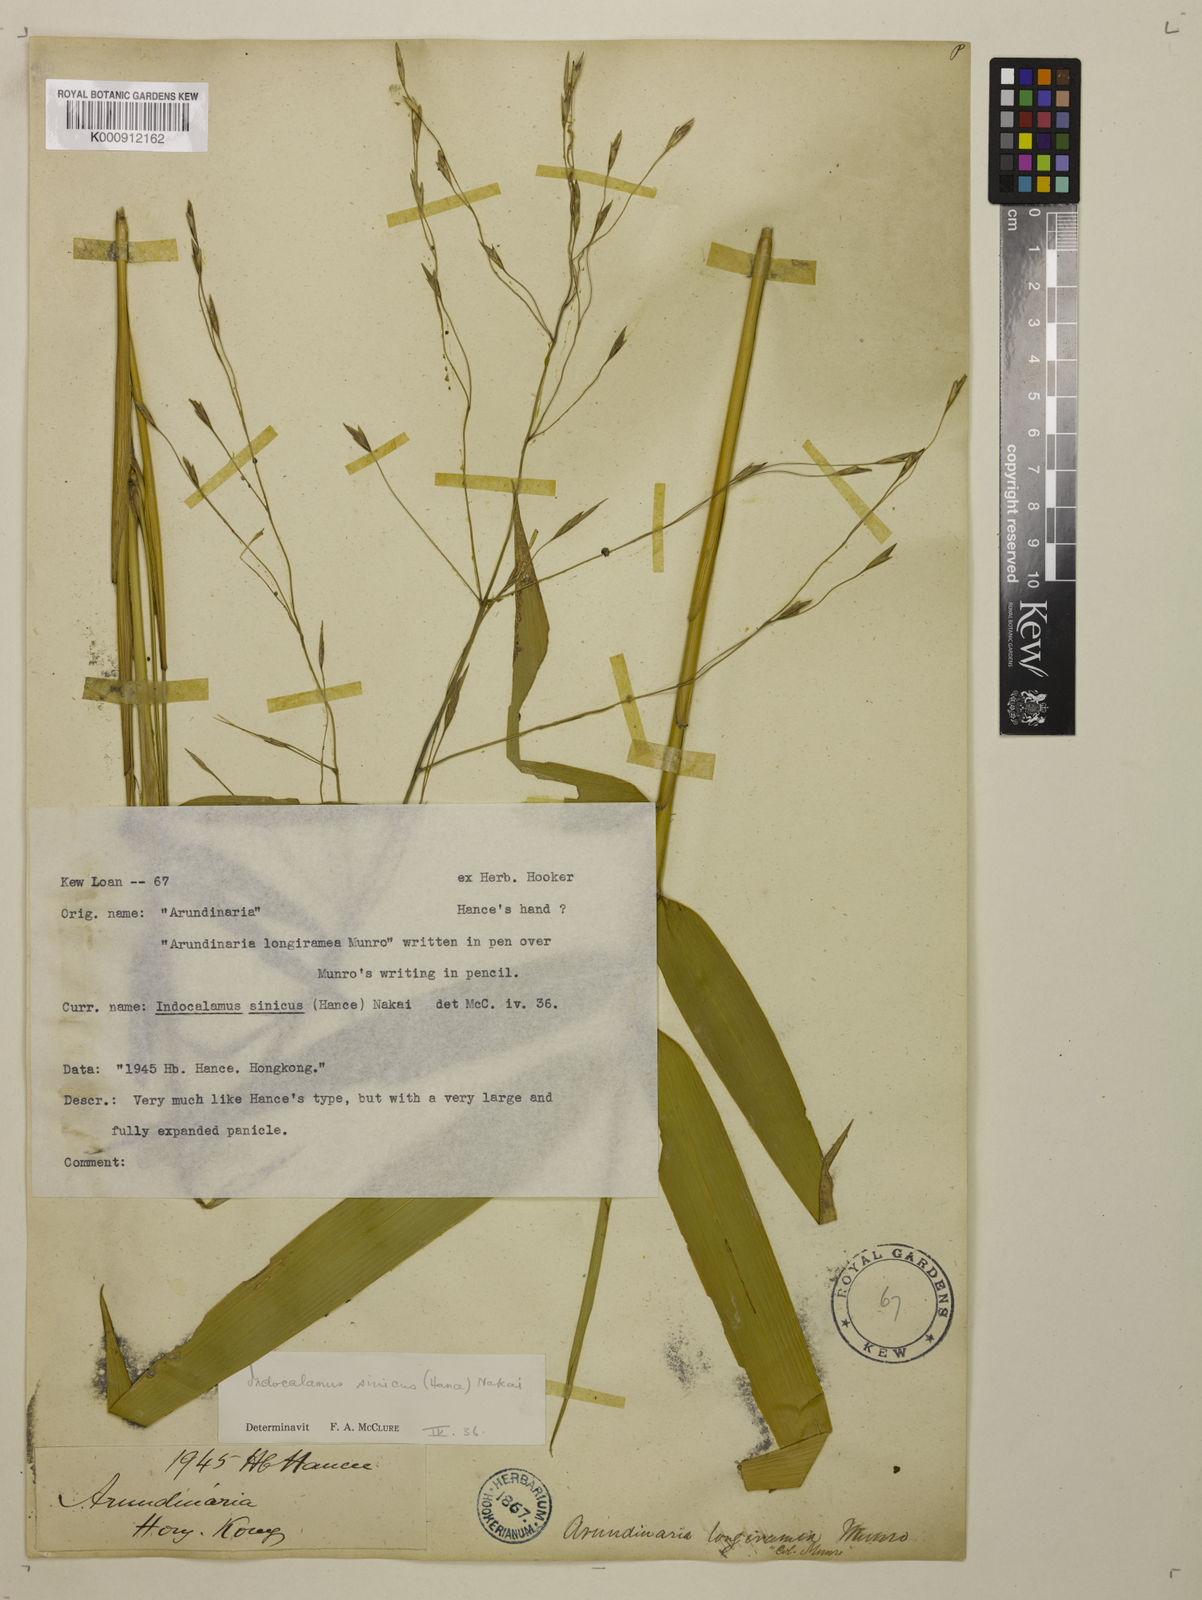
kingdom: Plantae
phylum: Tracheophyta
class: Liliopsida
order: Poales
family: Poaceae
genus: Indocalamus
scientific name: Indocalamus sinicus
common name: Chinese cane
